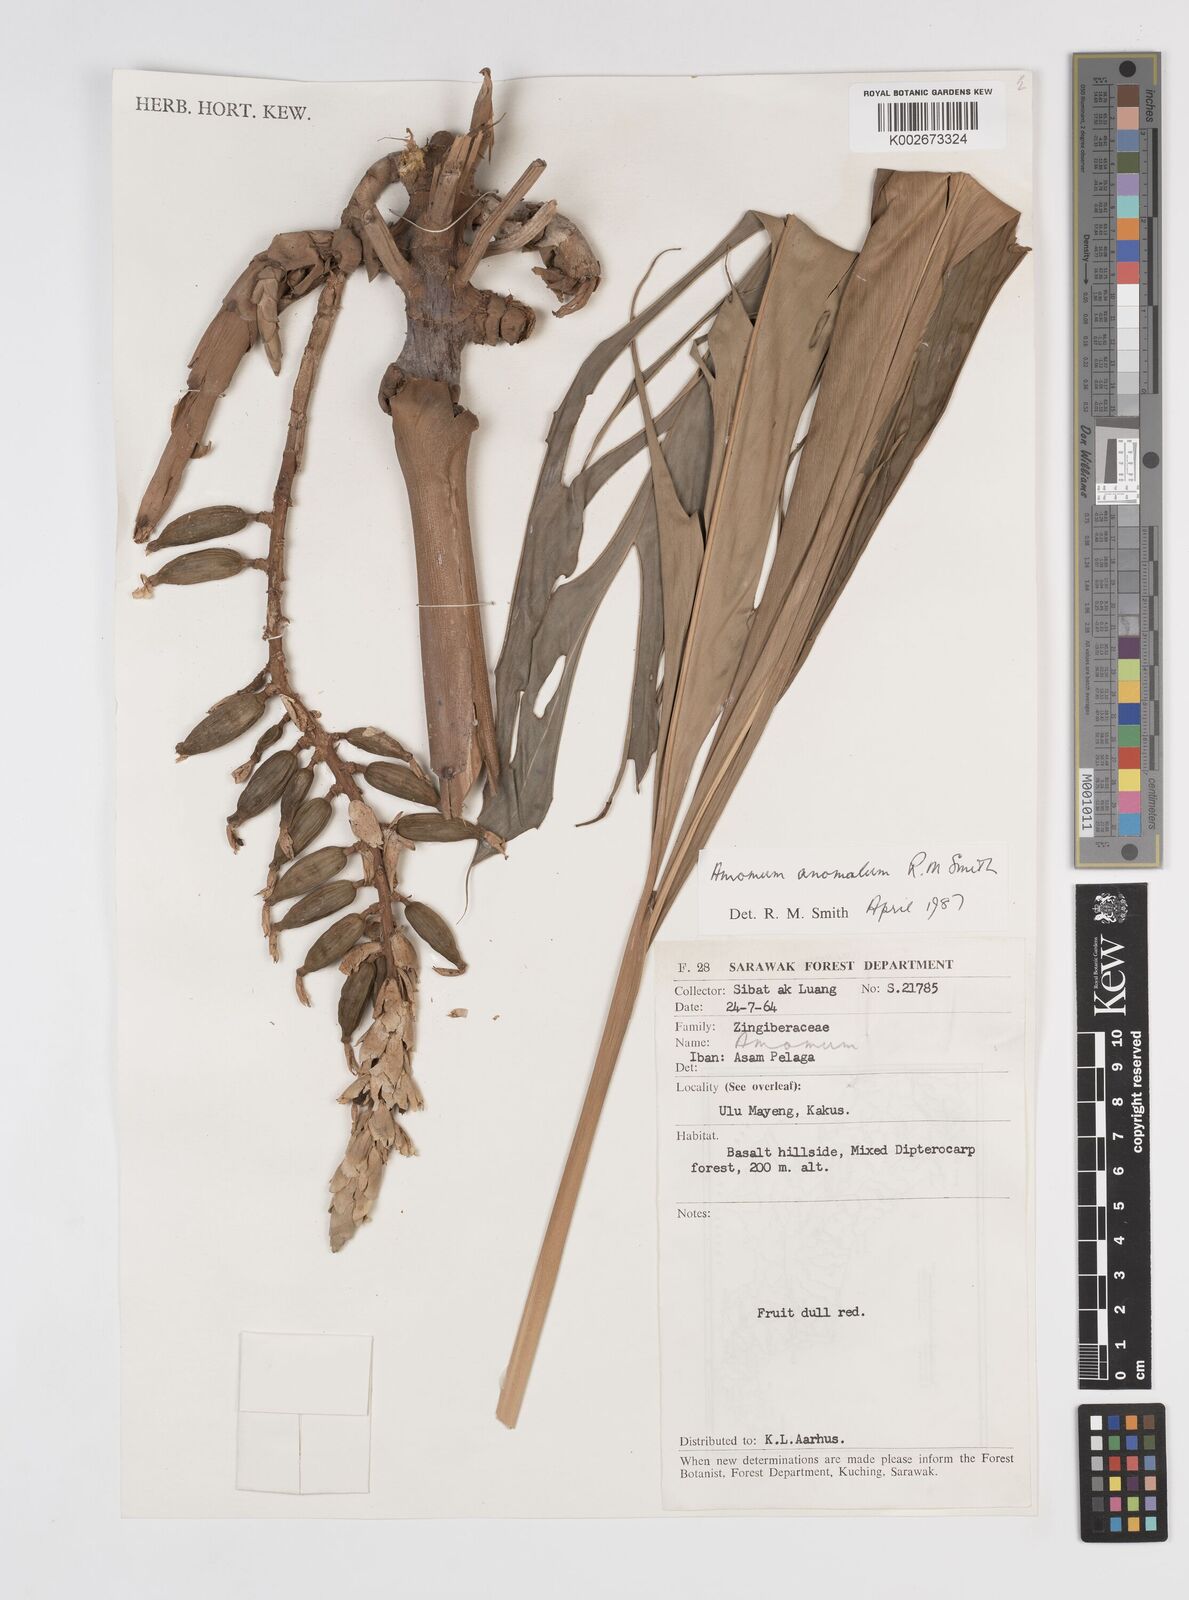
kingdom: Plantae
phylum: Tracheophyta
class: Liliopsida
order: Zingiberales
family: Zingiberaceae
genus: Sulettaria
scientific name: Sulettaria anomala
